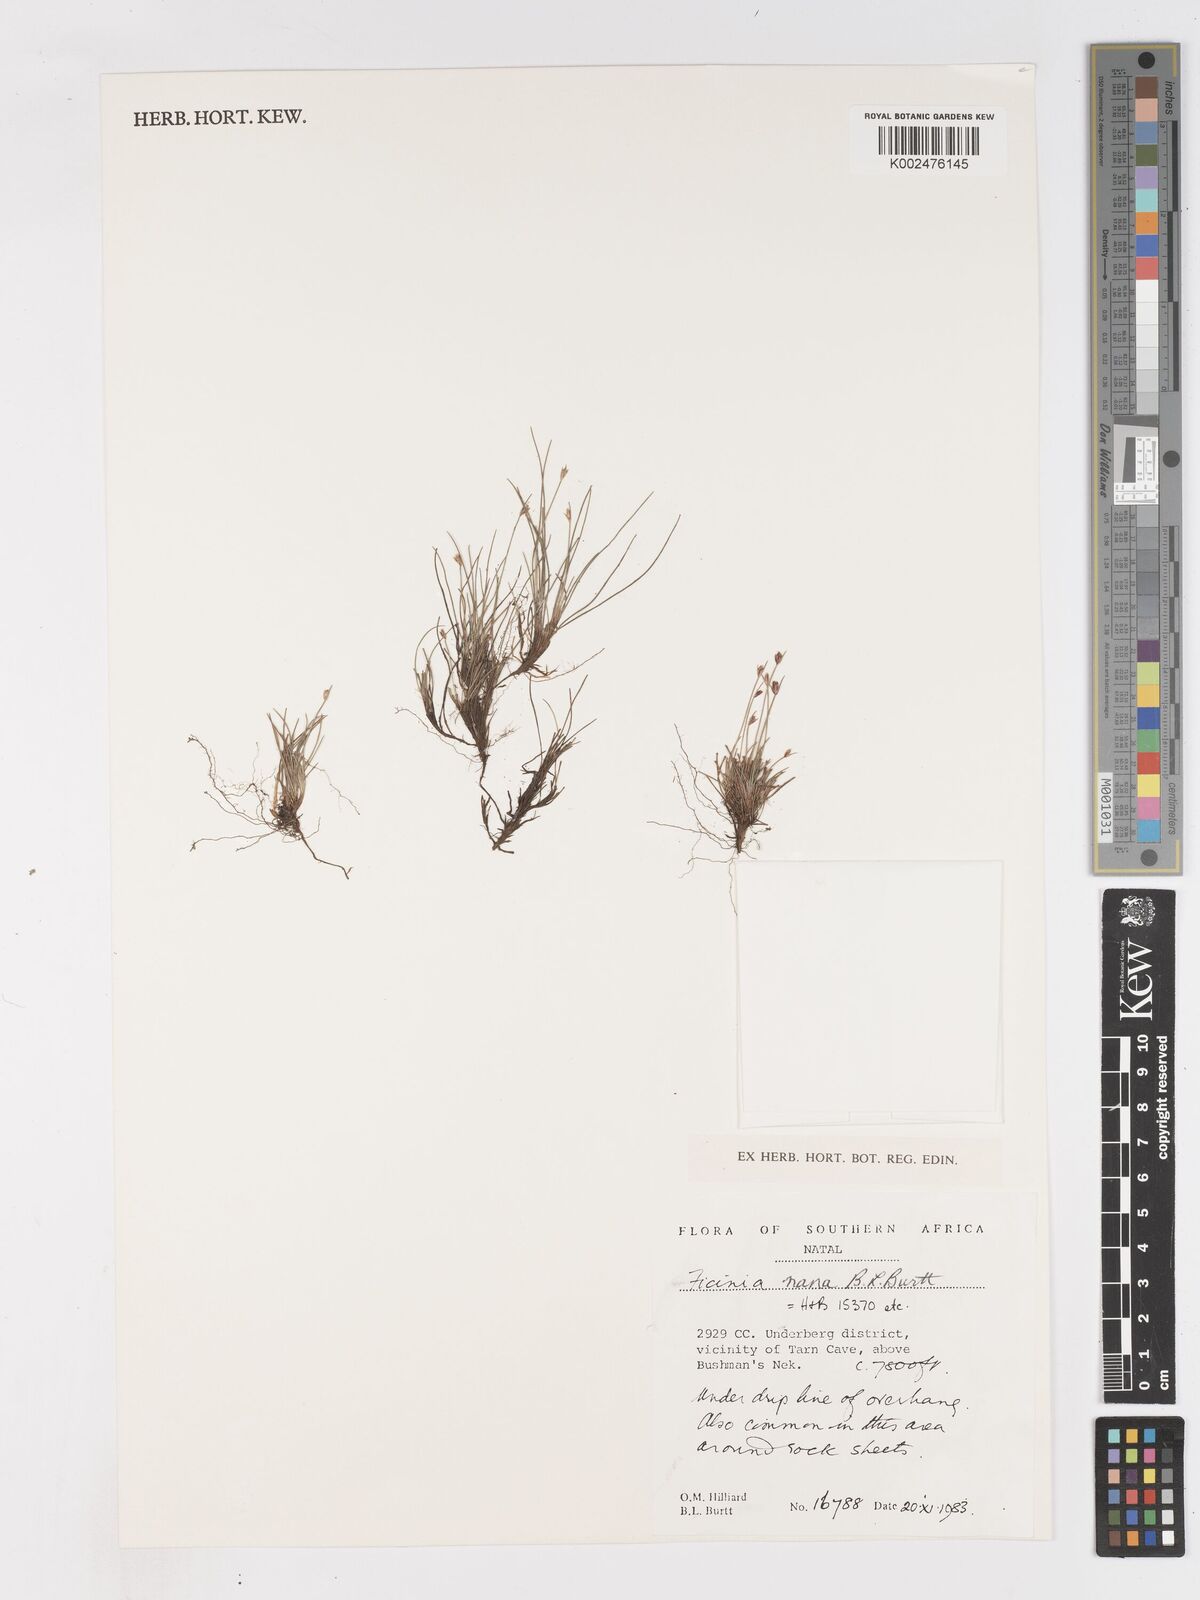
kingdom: Plantae
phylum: Tracheophyta
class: Liliopsida
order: Poales
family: Cyperaceae
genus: Ficinia
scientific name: Ficinia nana
